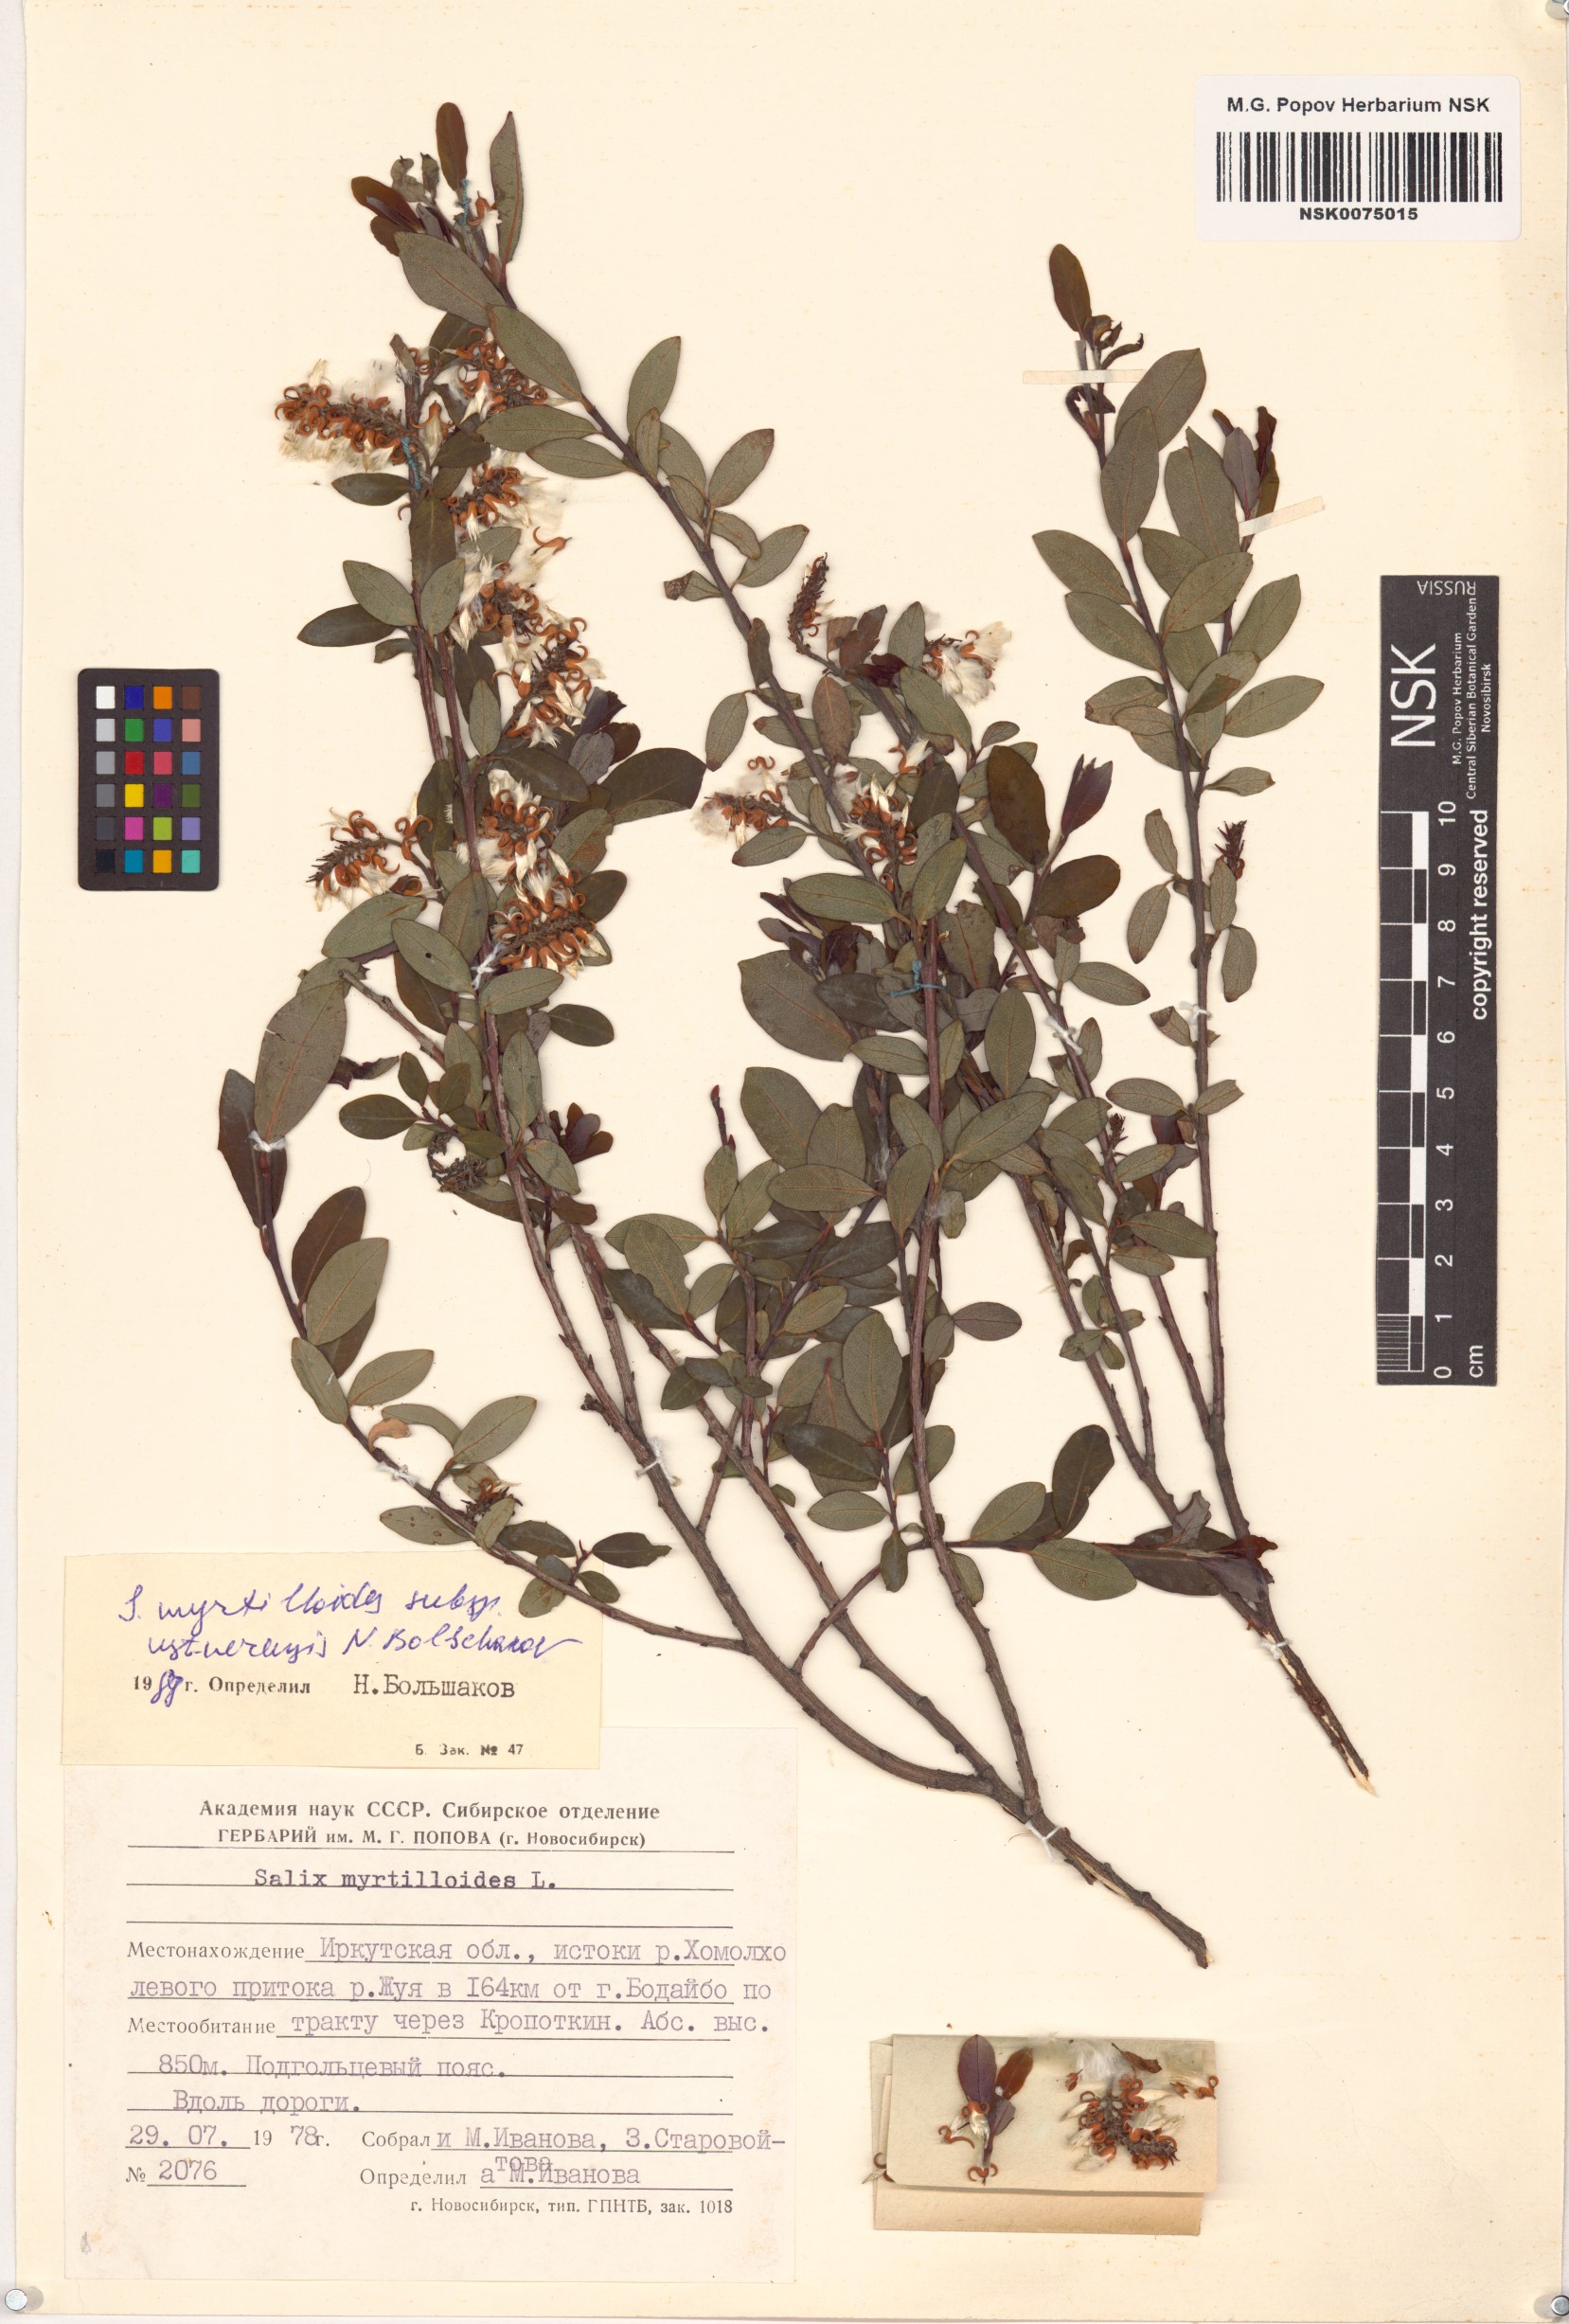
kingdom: Plantae
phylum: Tracheophyta
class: Magnoliopsida
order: Malpighiales
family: Salicaceae
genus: Salix
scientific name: Salix ustnerensis
